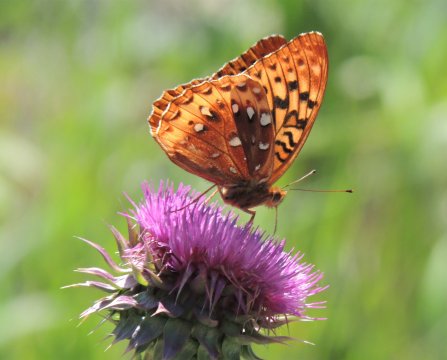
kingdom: Animalia
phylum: Arthropoda
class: Insecta
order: Lepidoptera
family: Nymphalidae
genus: Speyeria
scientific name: Speyeria cybele
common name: Great Spangled Fritillary
